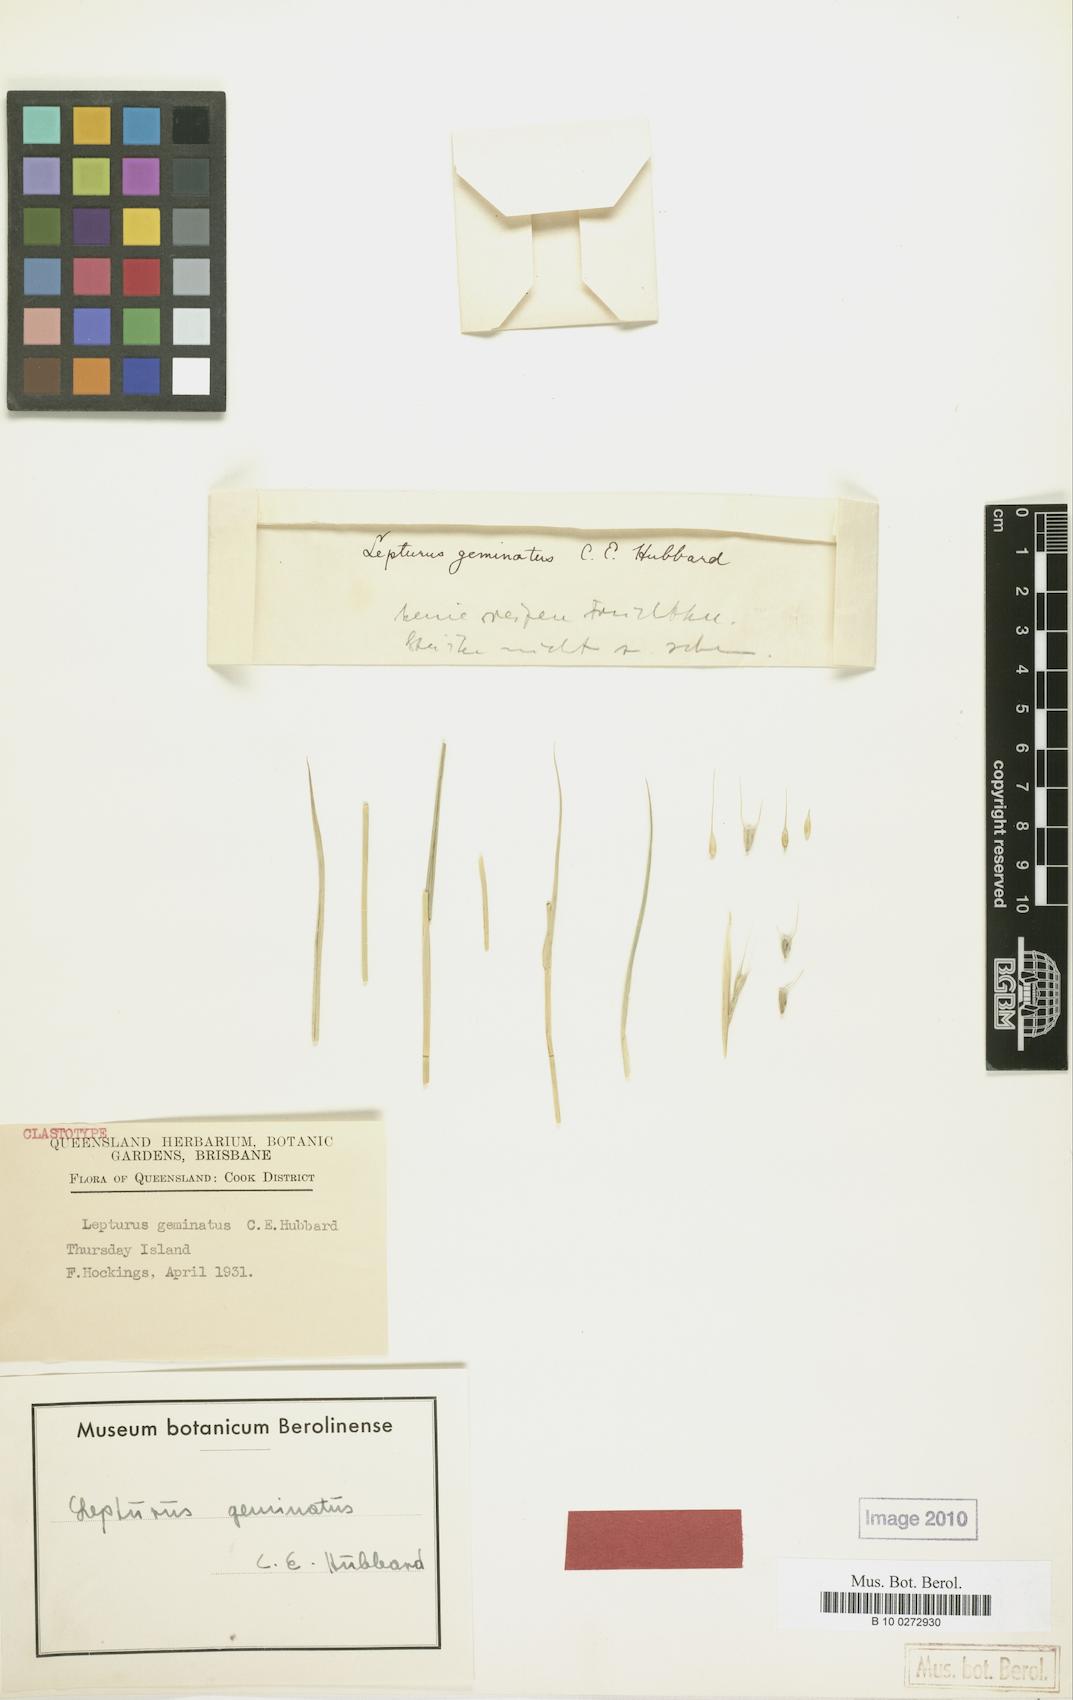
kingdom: Plantae
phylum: Tracheophyta
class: Liliopsida
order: Poales
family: Poaceae
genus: Lepturus
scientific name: Lepturus geminatus
